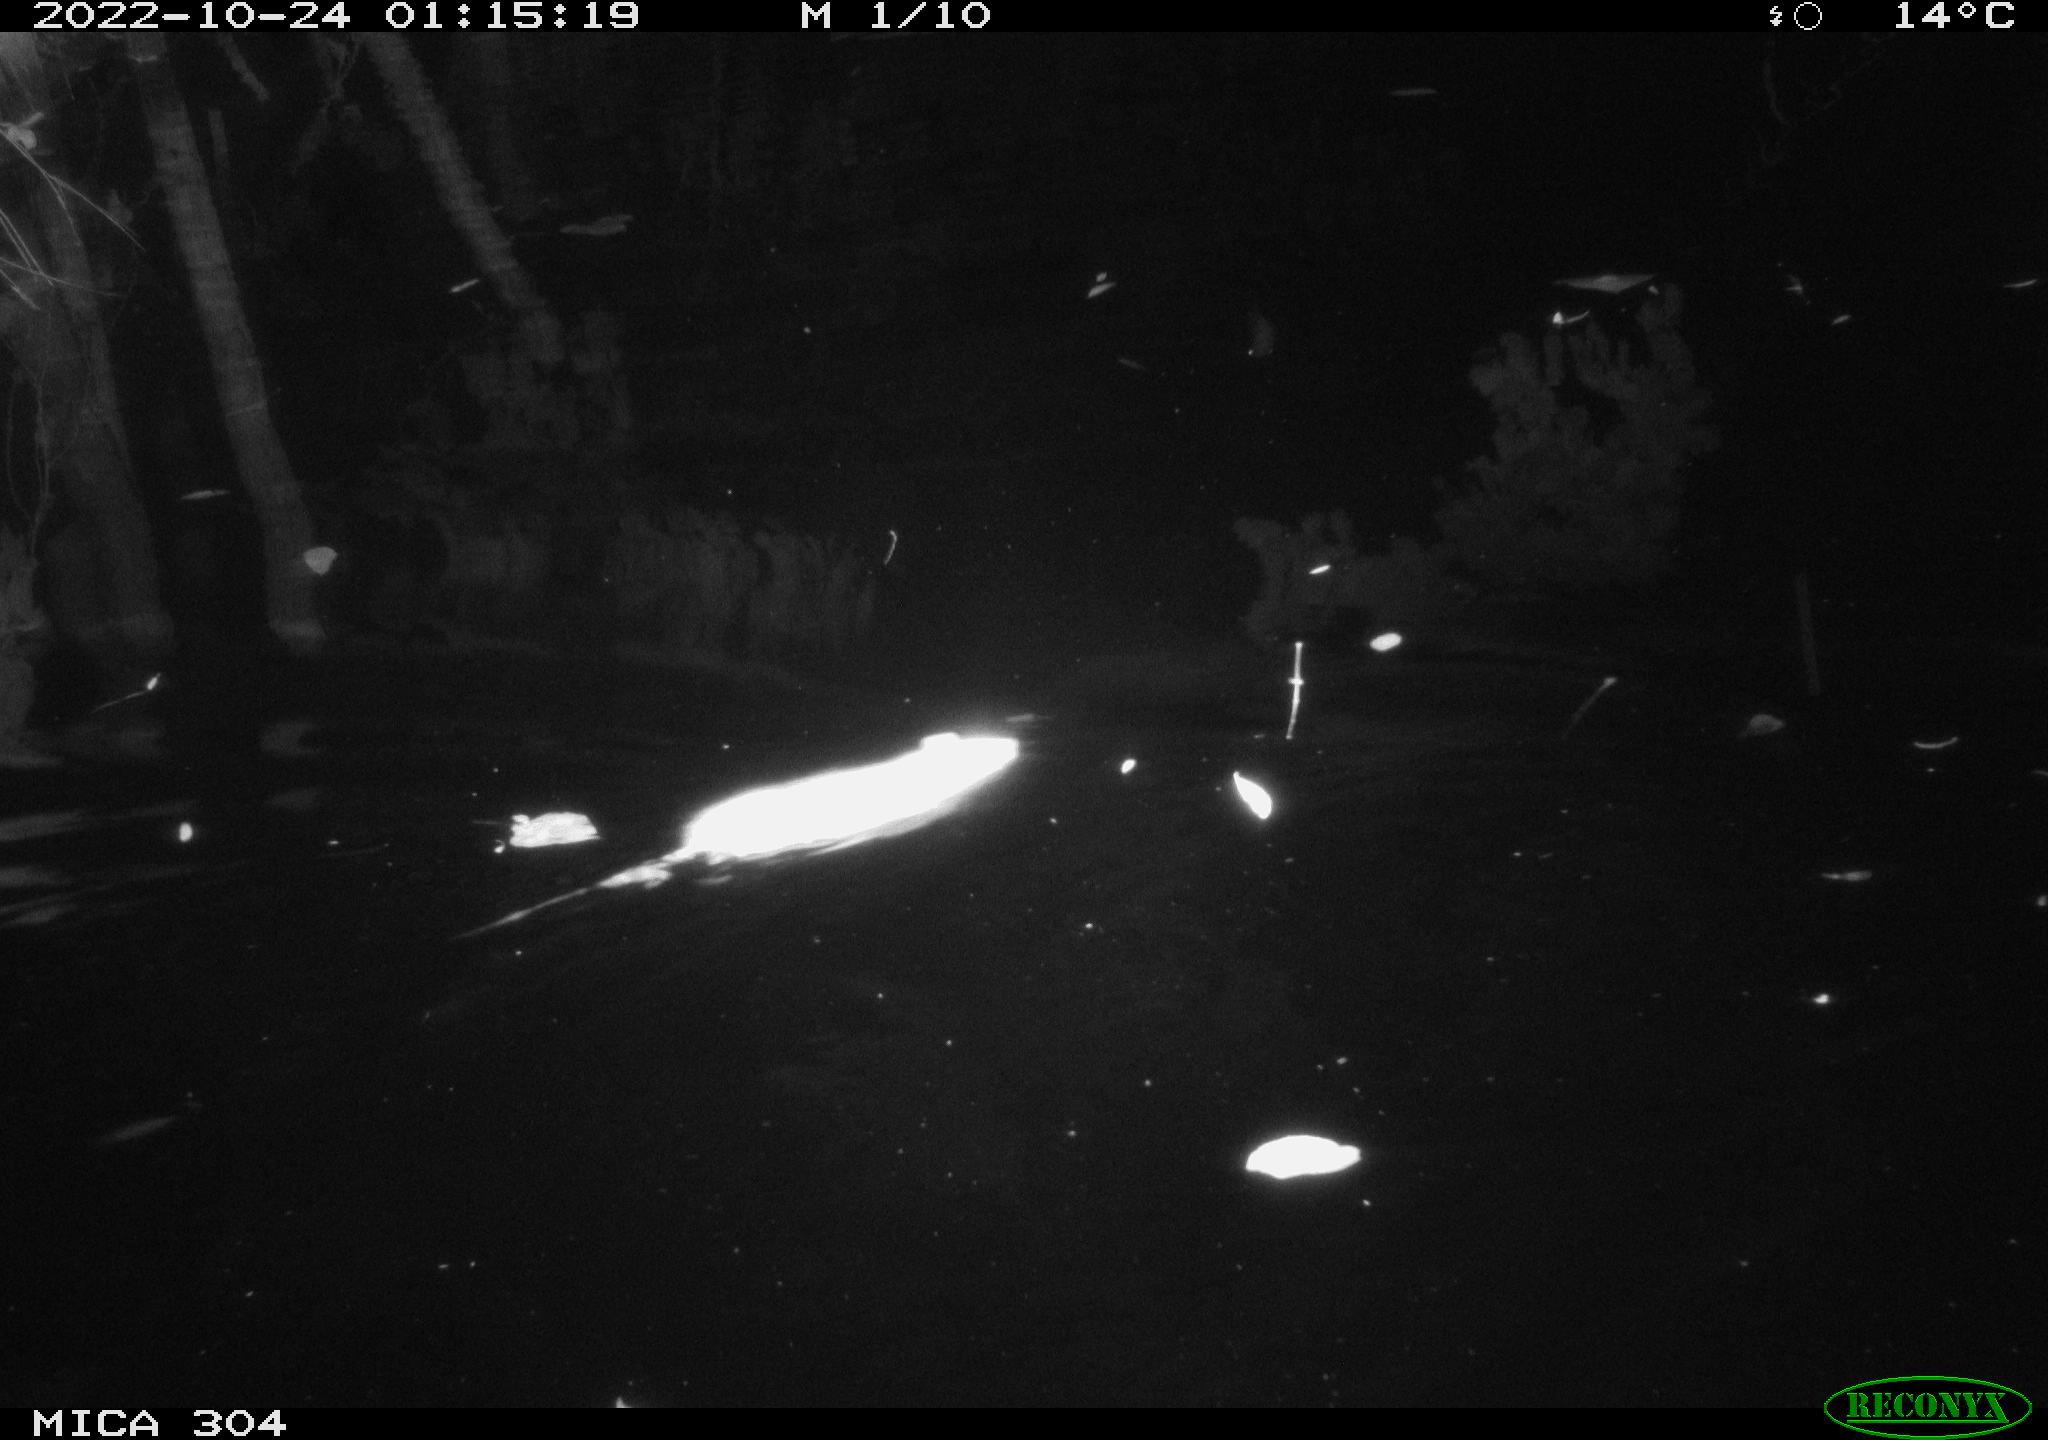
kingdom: Animalia
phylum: Chordata
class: Mammalia
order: Rodentia
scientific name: Rodentia
